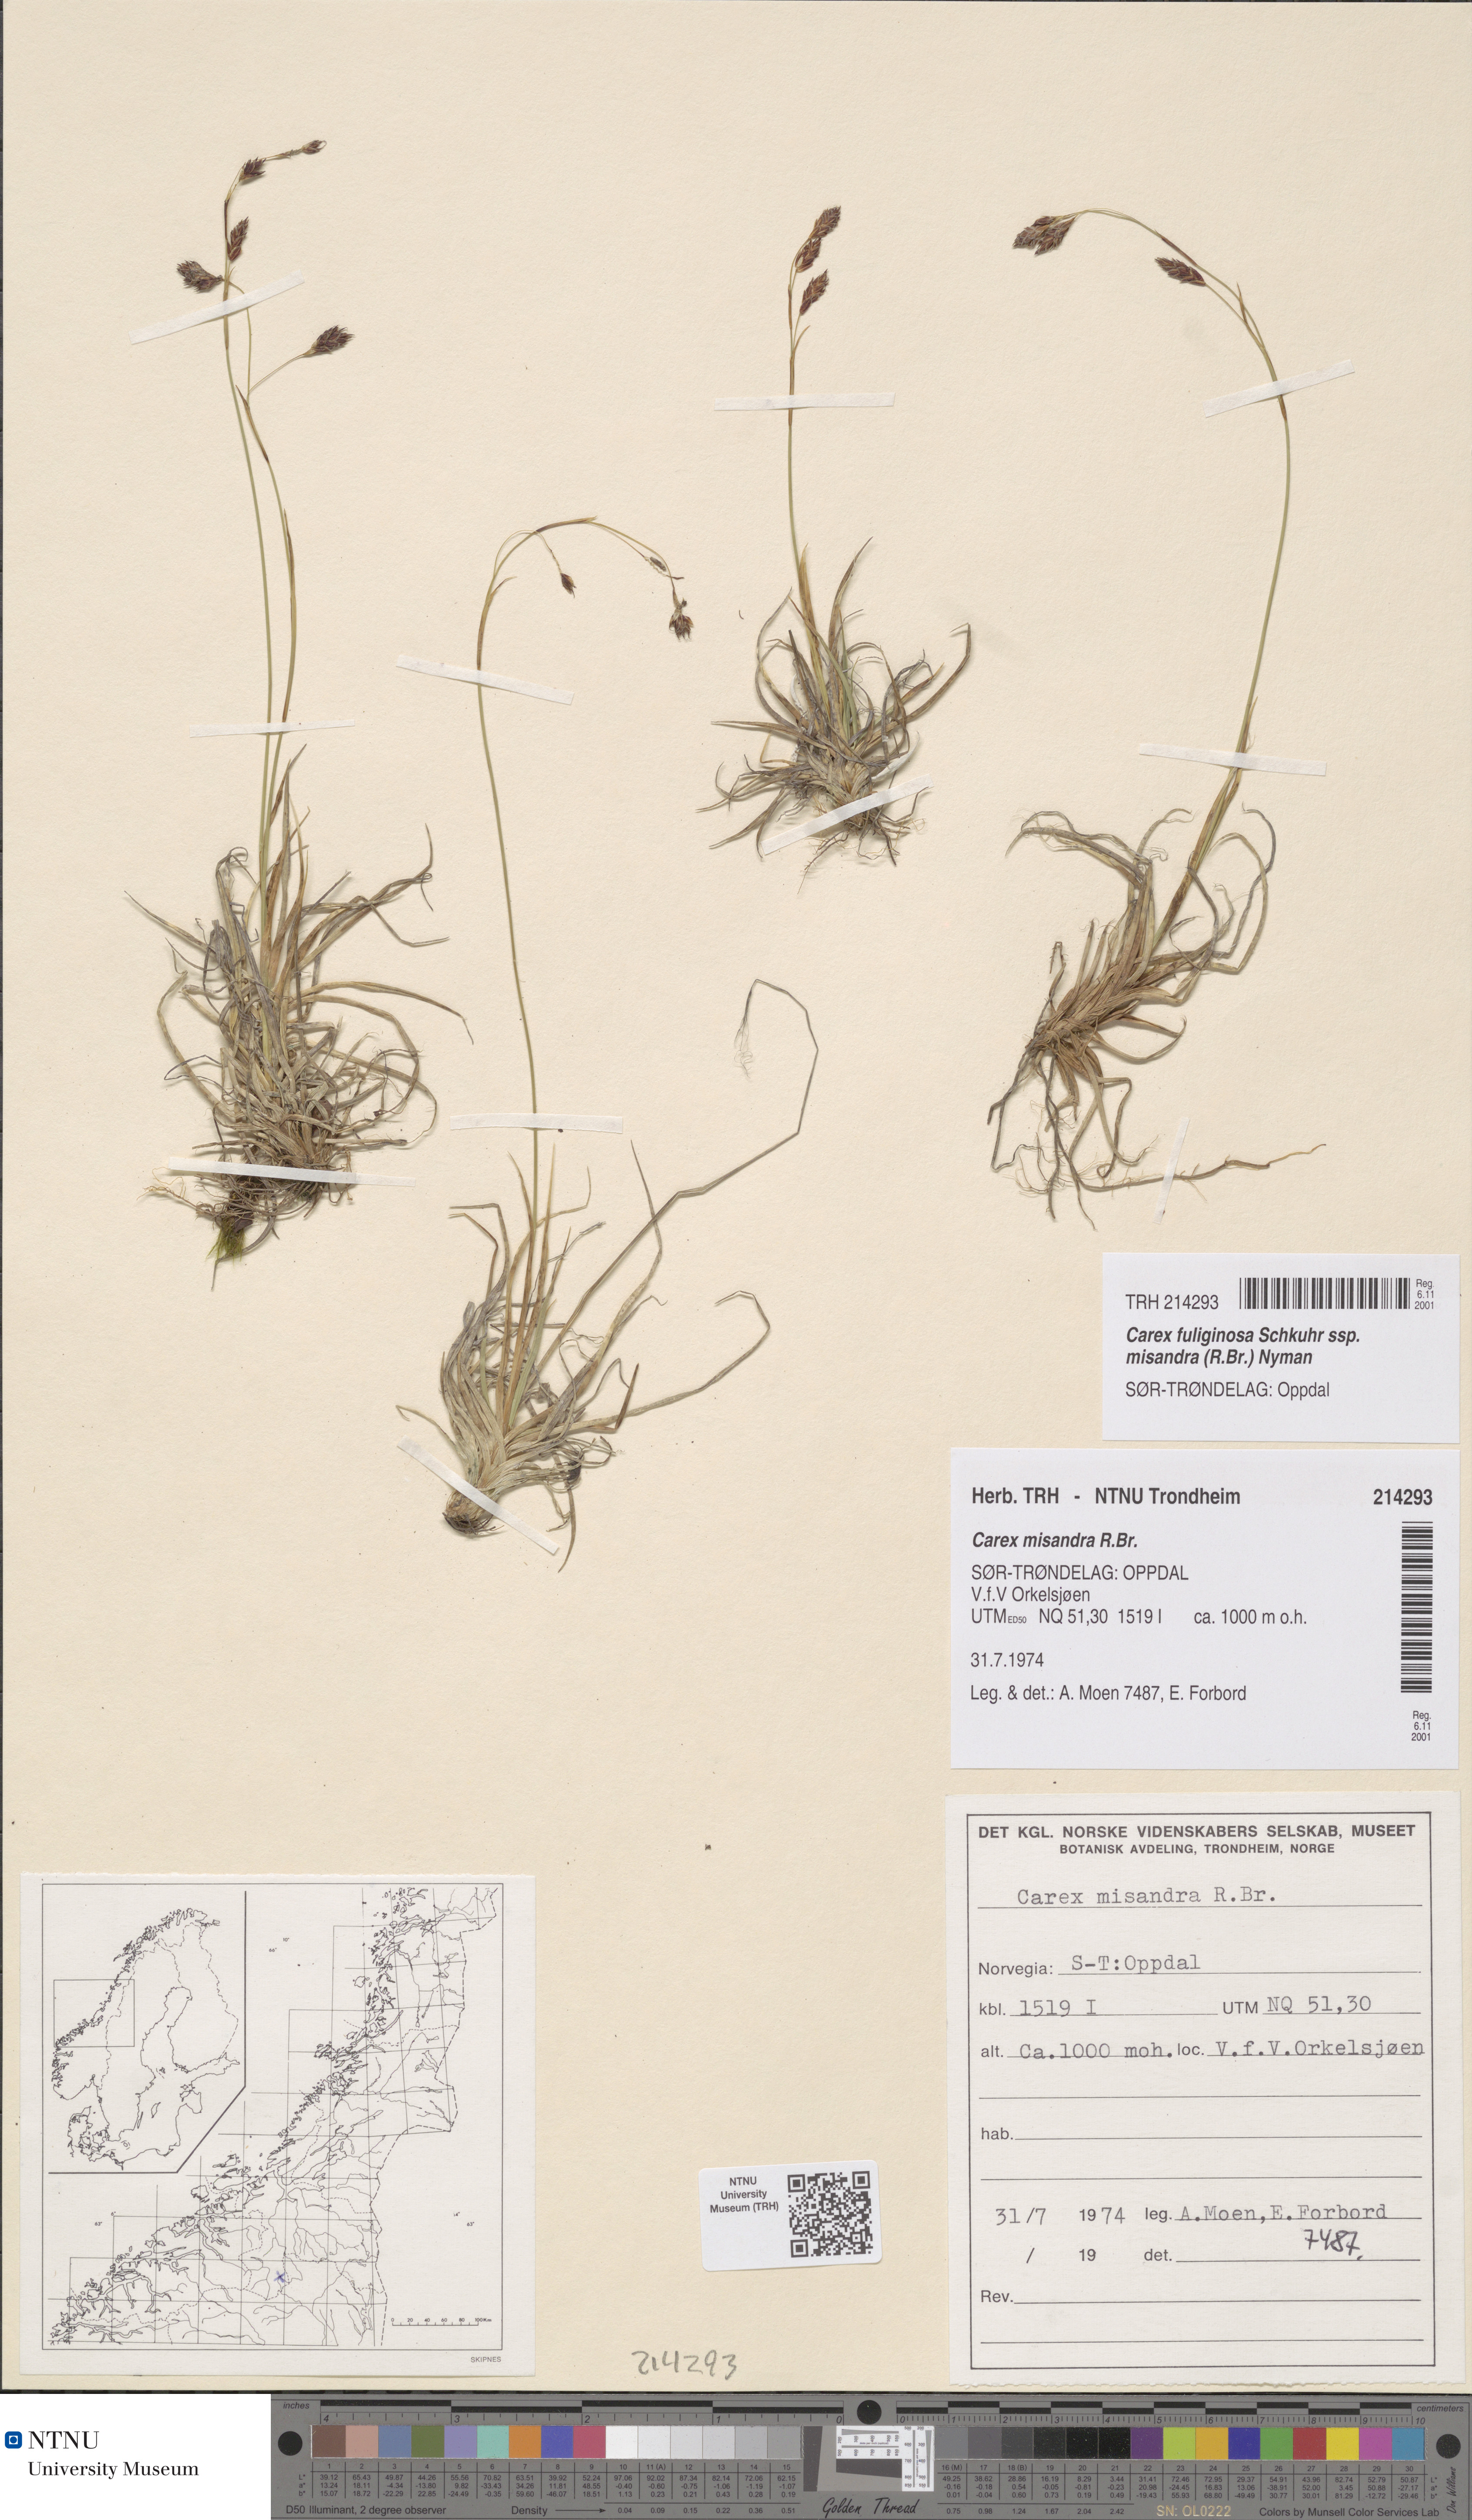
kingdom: Plantae
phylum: Tracheophyta
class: Liliopsida
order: Poales
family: Cyperaceae
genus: Carex
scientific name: Carex fuliginosa
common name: Few-flowered sedge
